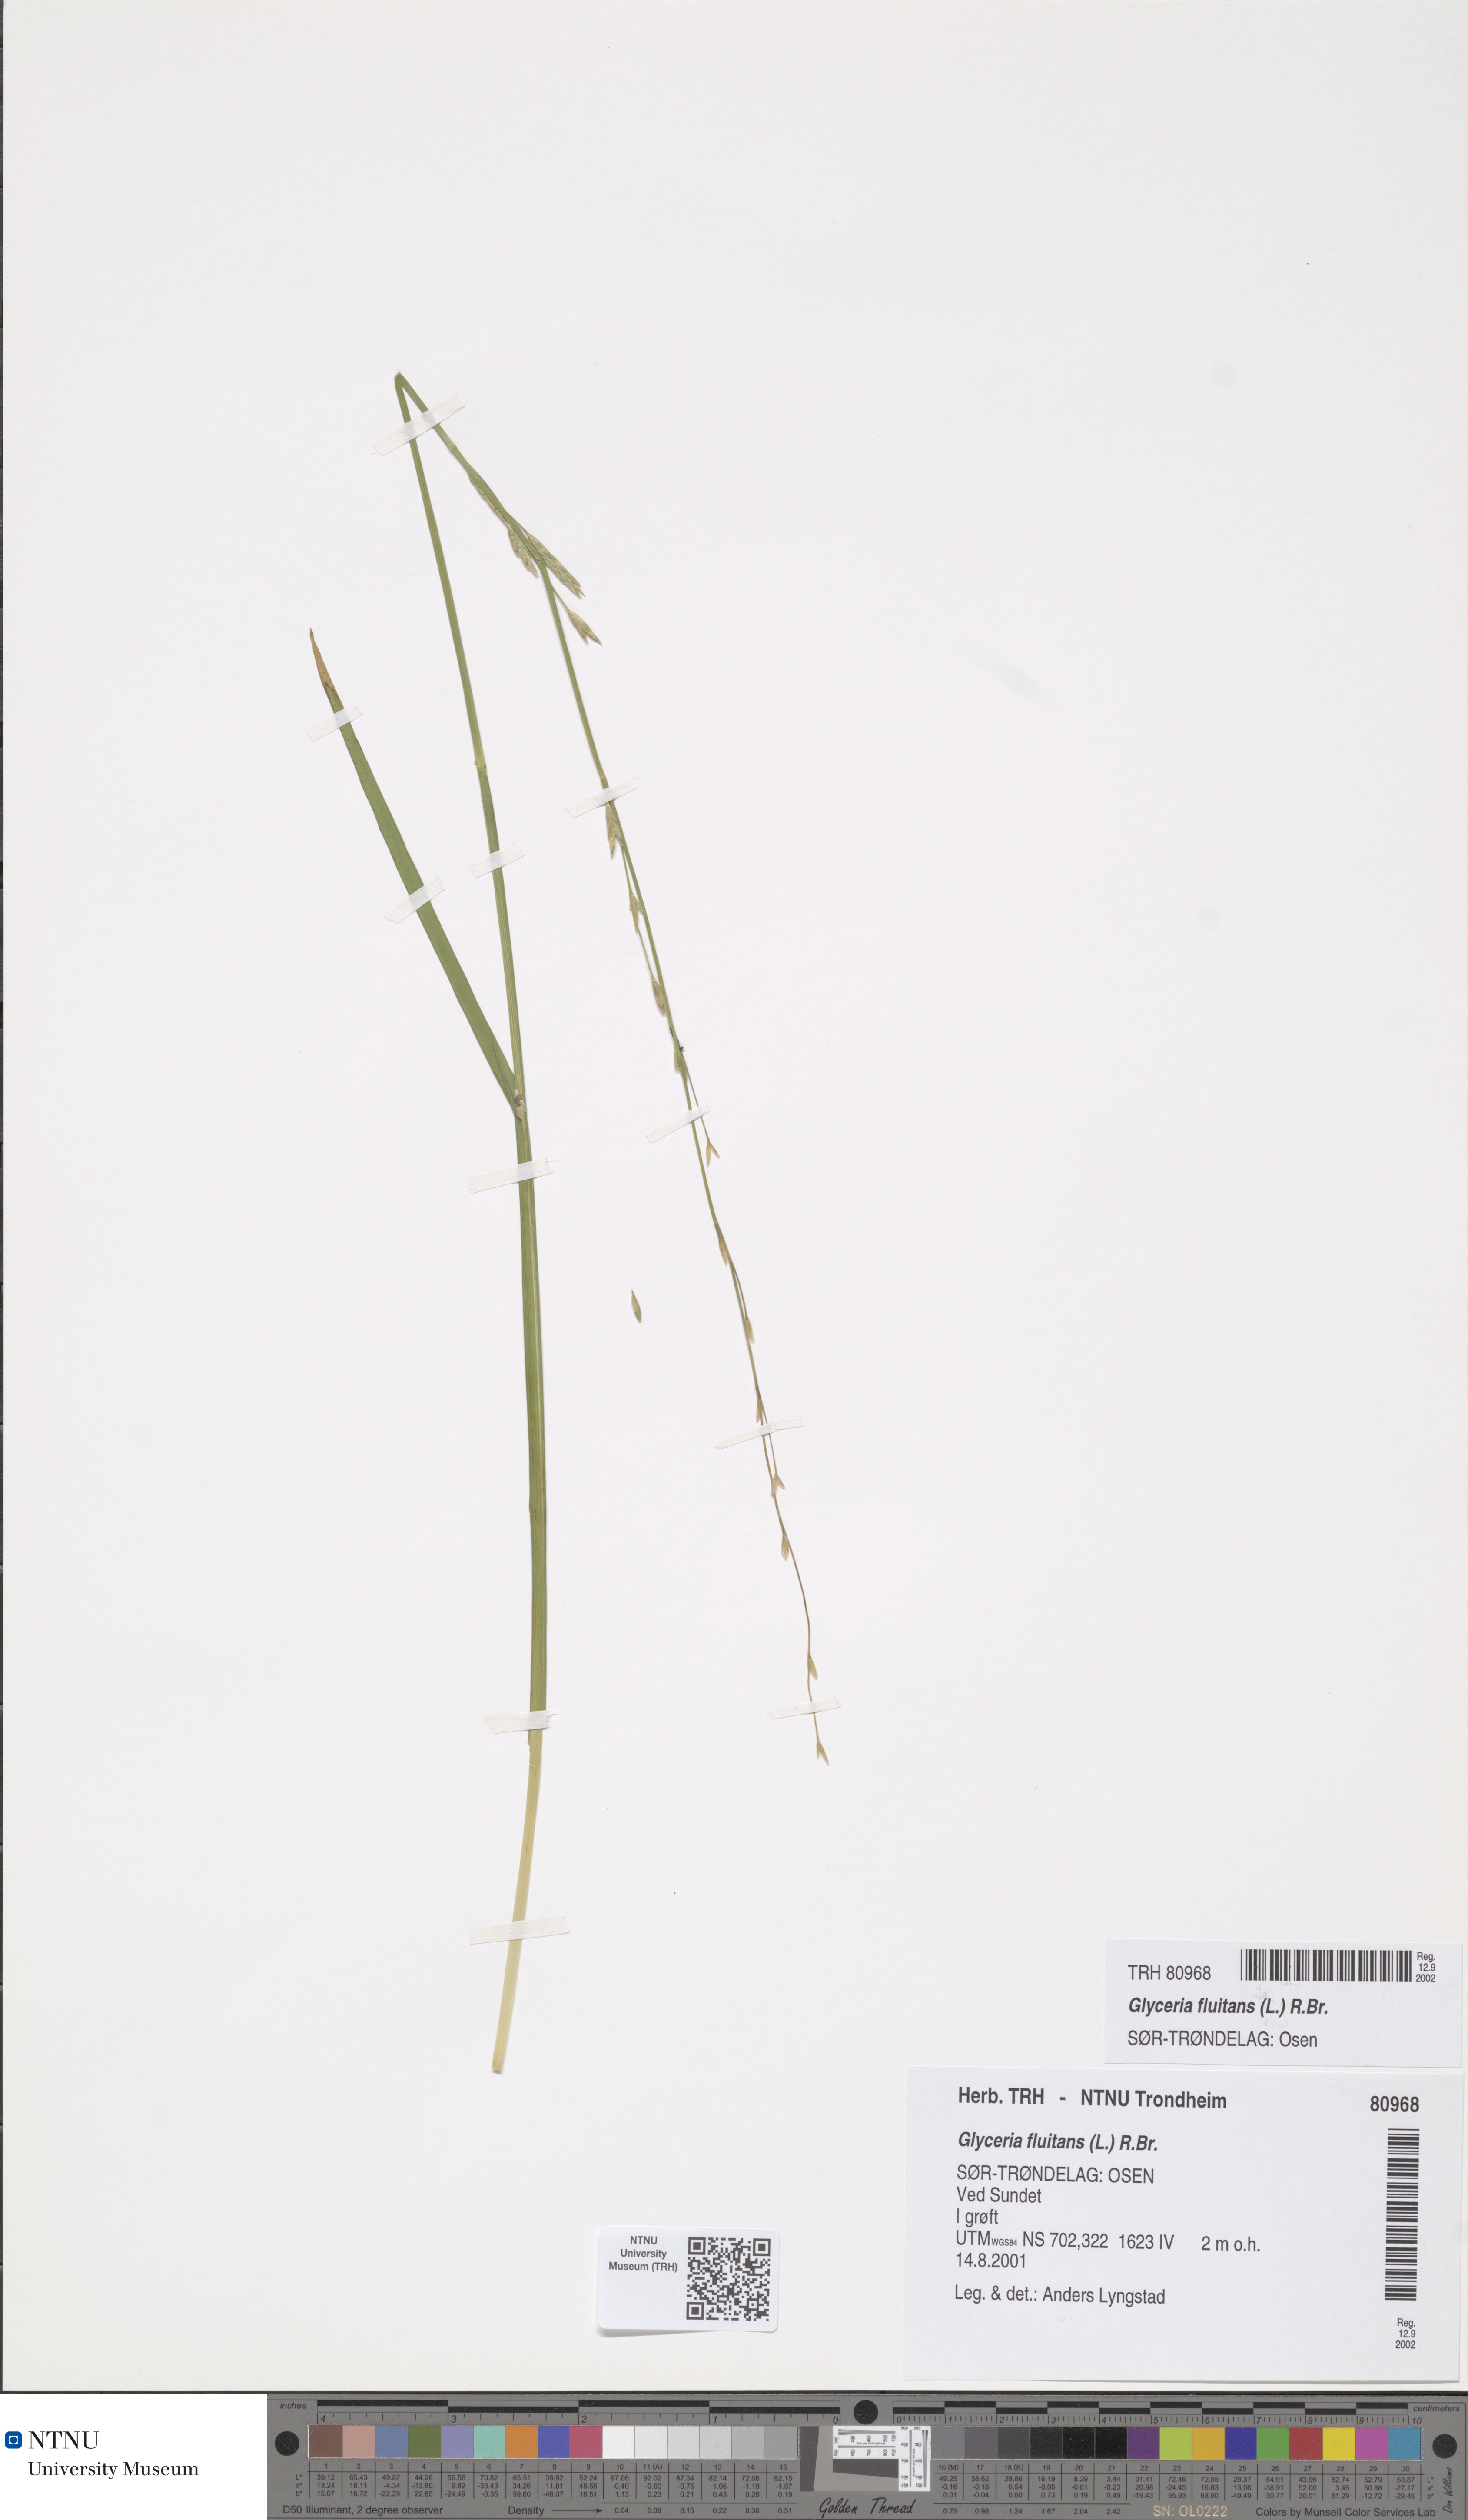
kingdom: Plantae
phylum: Tracheophyta
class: Liliopsida
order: Poales
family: Poaceae
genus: Glyceria
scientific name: Glyceria fluitans
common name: Floating sweet-grass
